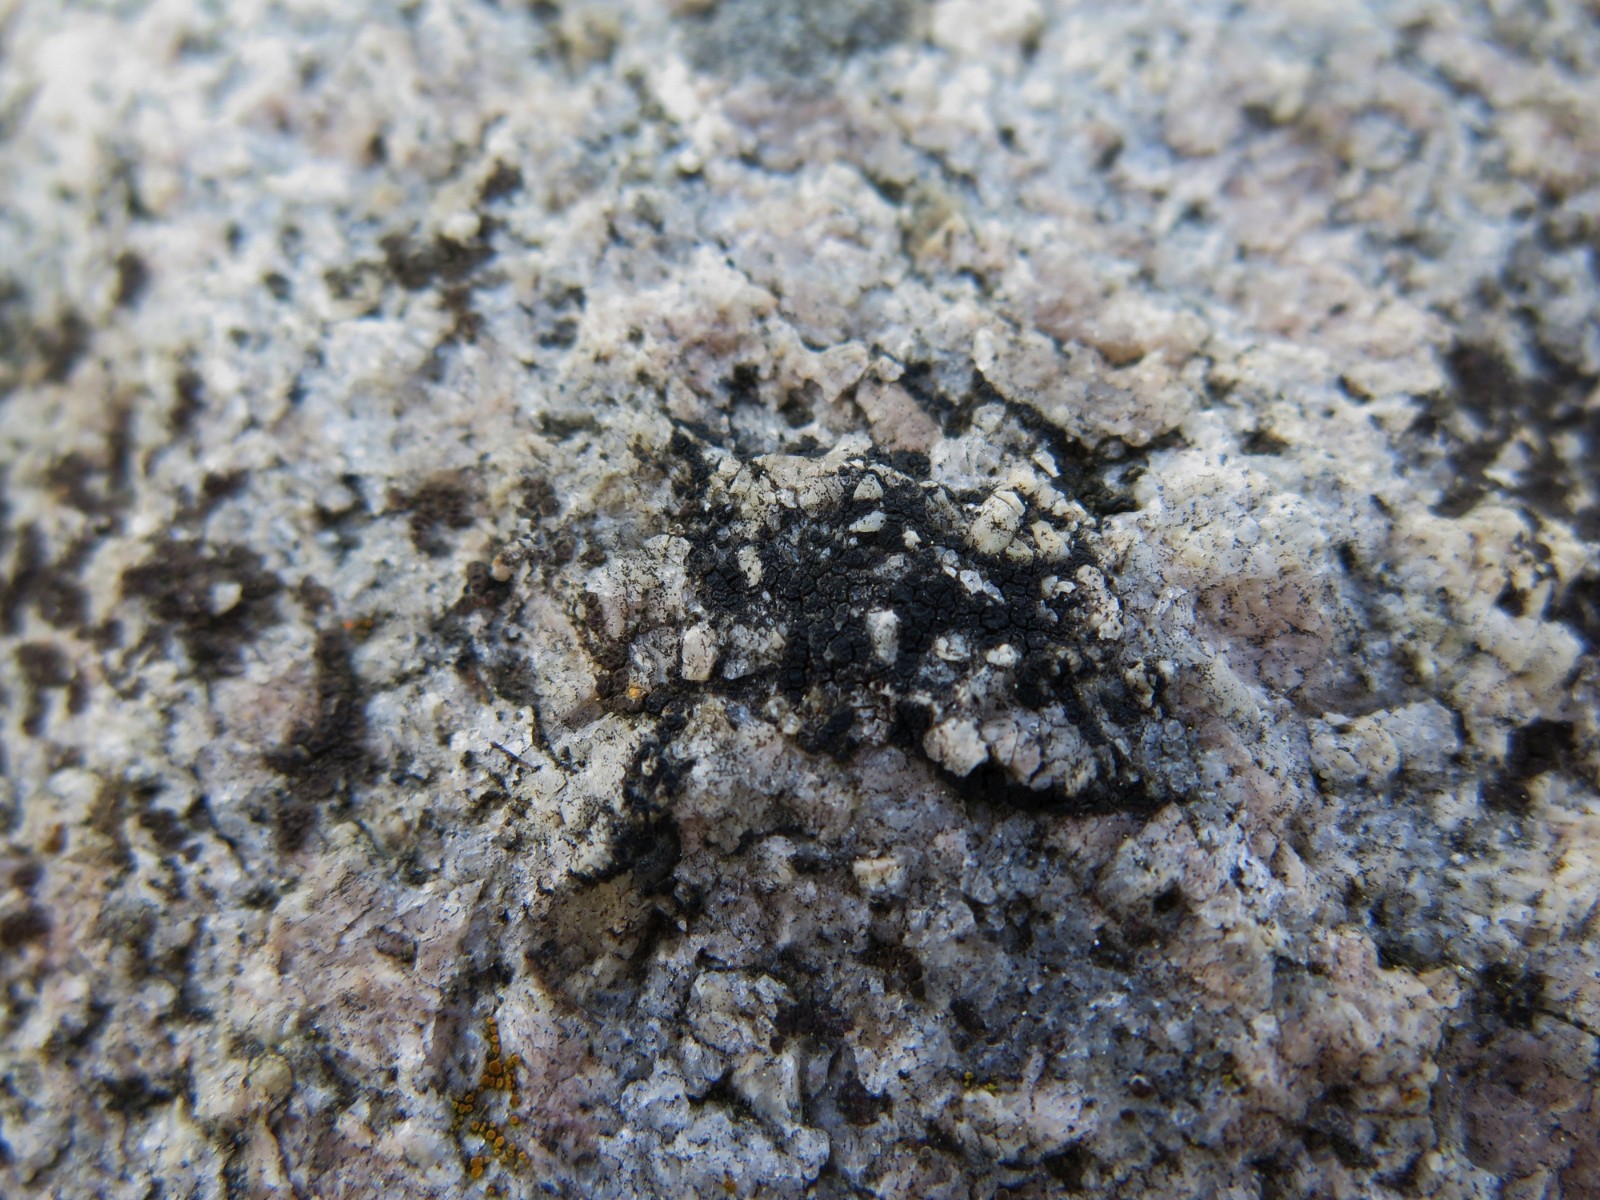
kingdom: Fungi
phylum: Ascomycota
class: Lecanoromycetes
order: Acarosporales
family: Acarosporaceae
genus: Acarospora
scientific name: Acarospora privigna
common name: sort foldekantlav
